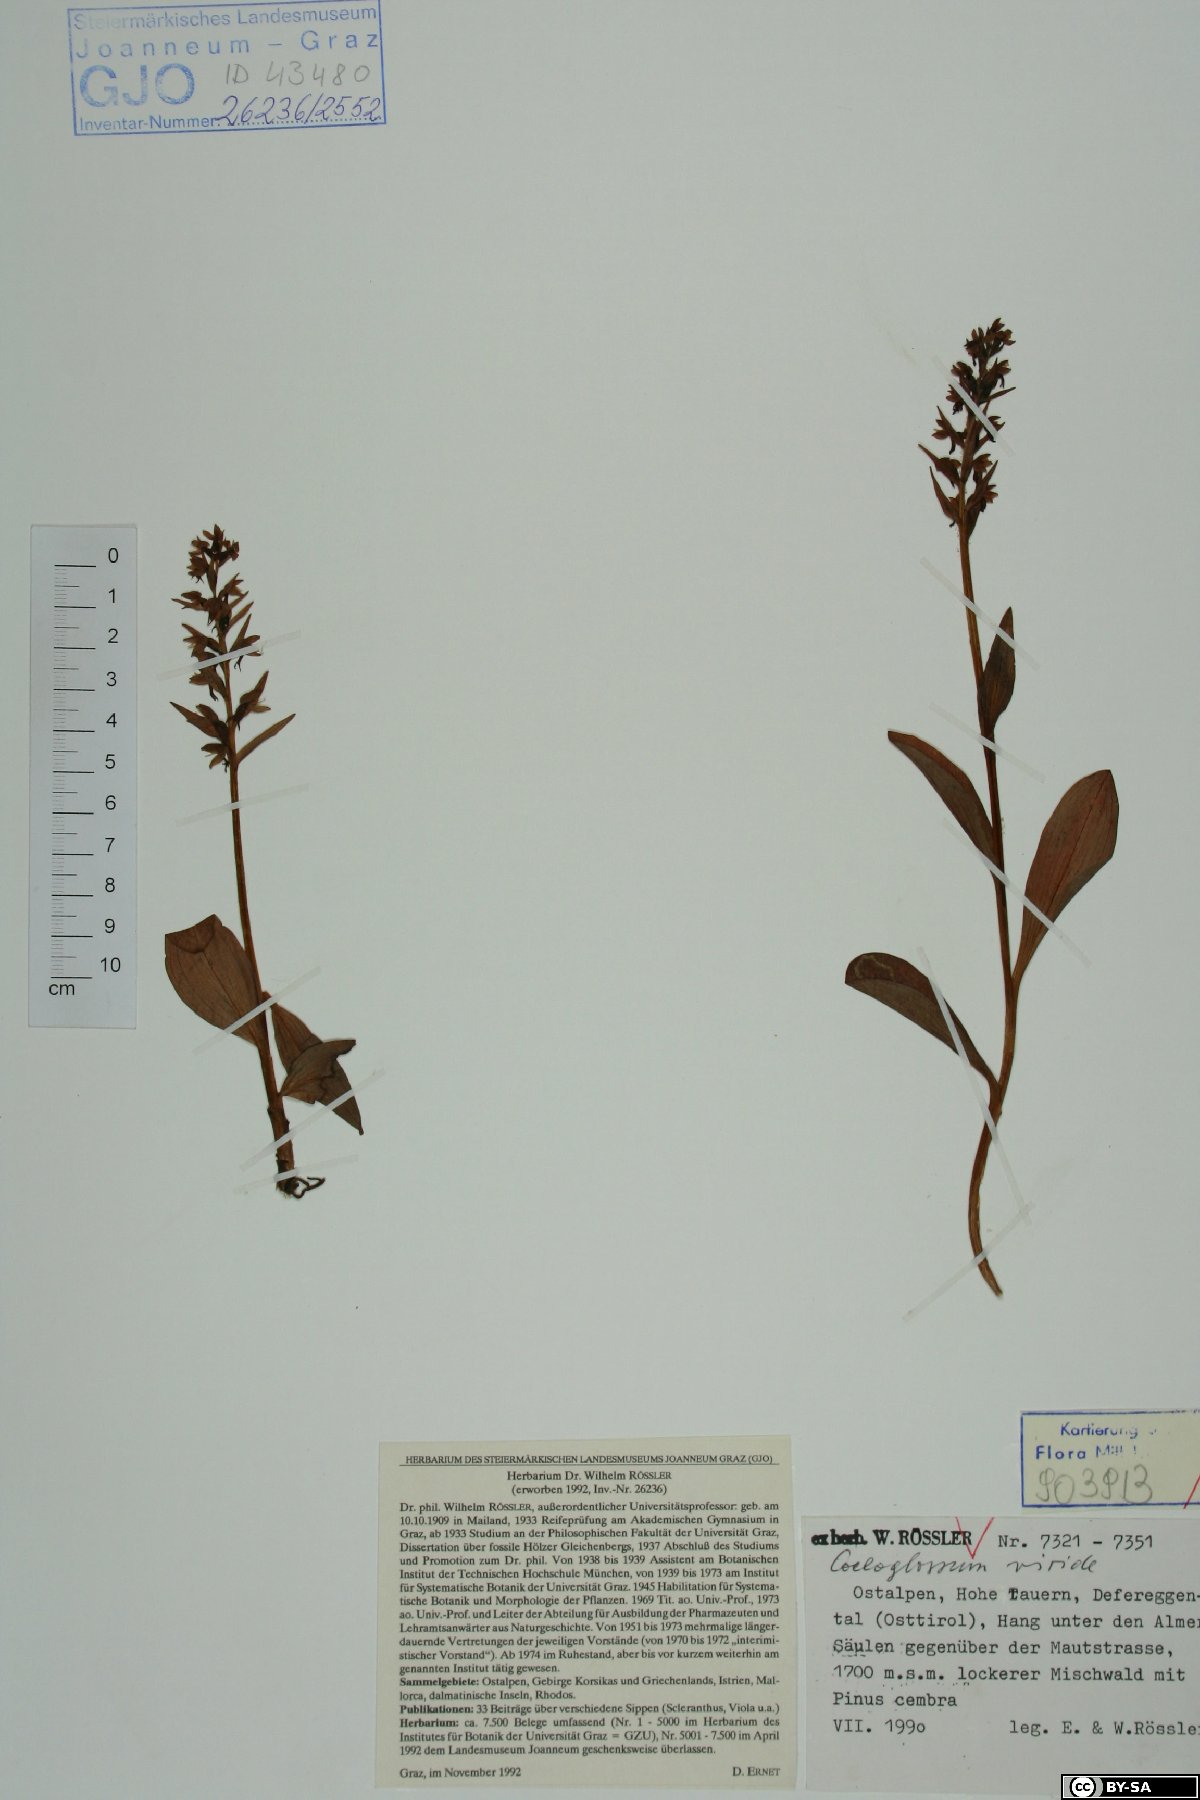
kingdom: Plantae
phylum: Tracheophyta
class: Liliopsida
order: Asparagales
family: Orchidaceae
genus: Dactylorhiza
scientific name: Dactylorhiza viridis
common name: Longbract frog orchid
